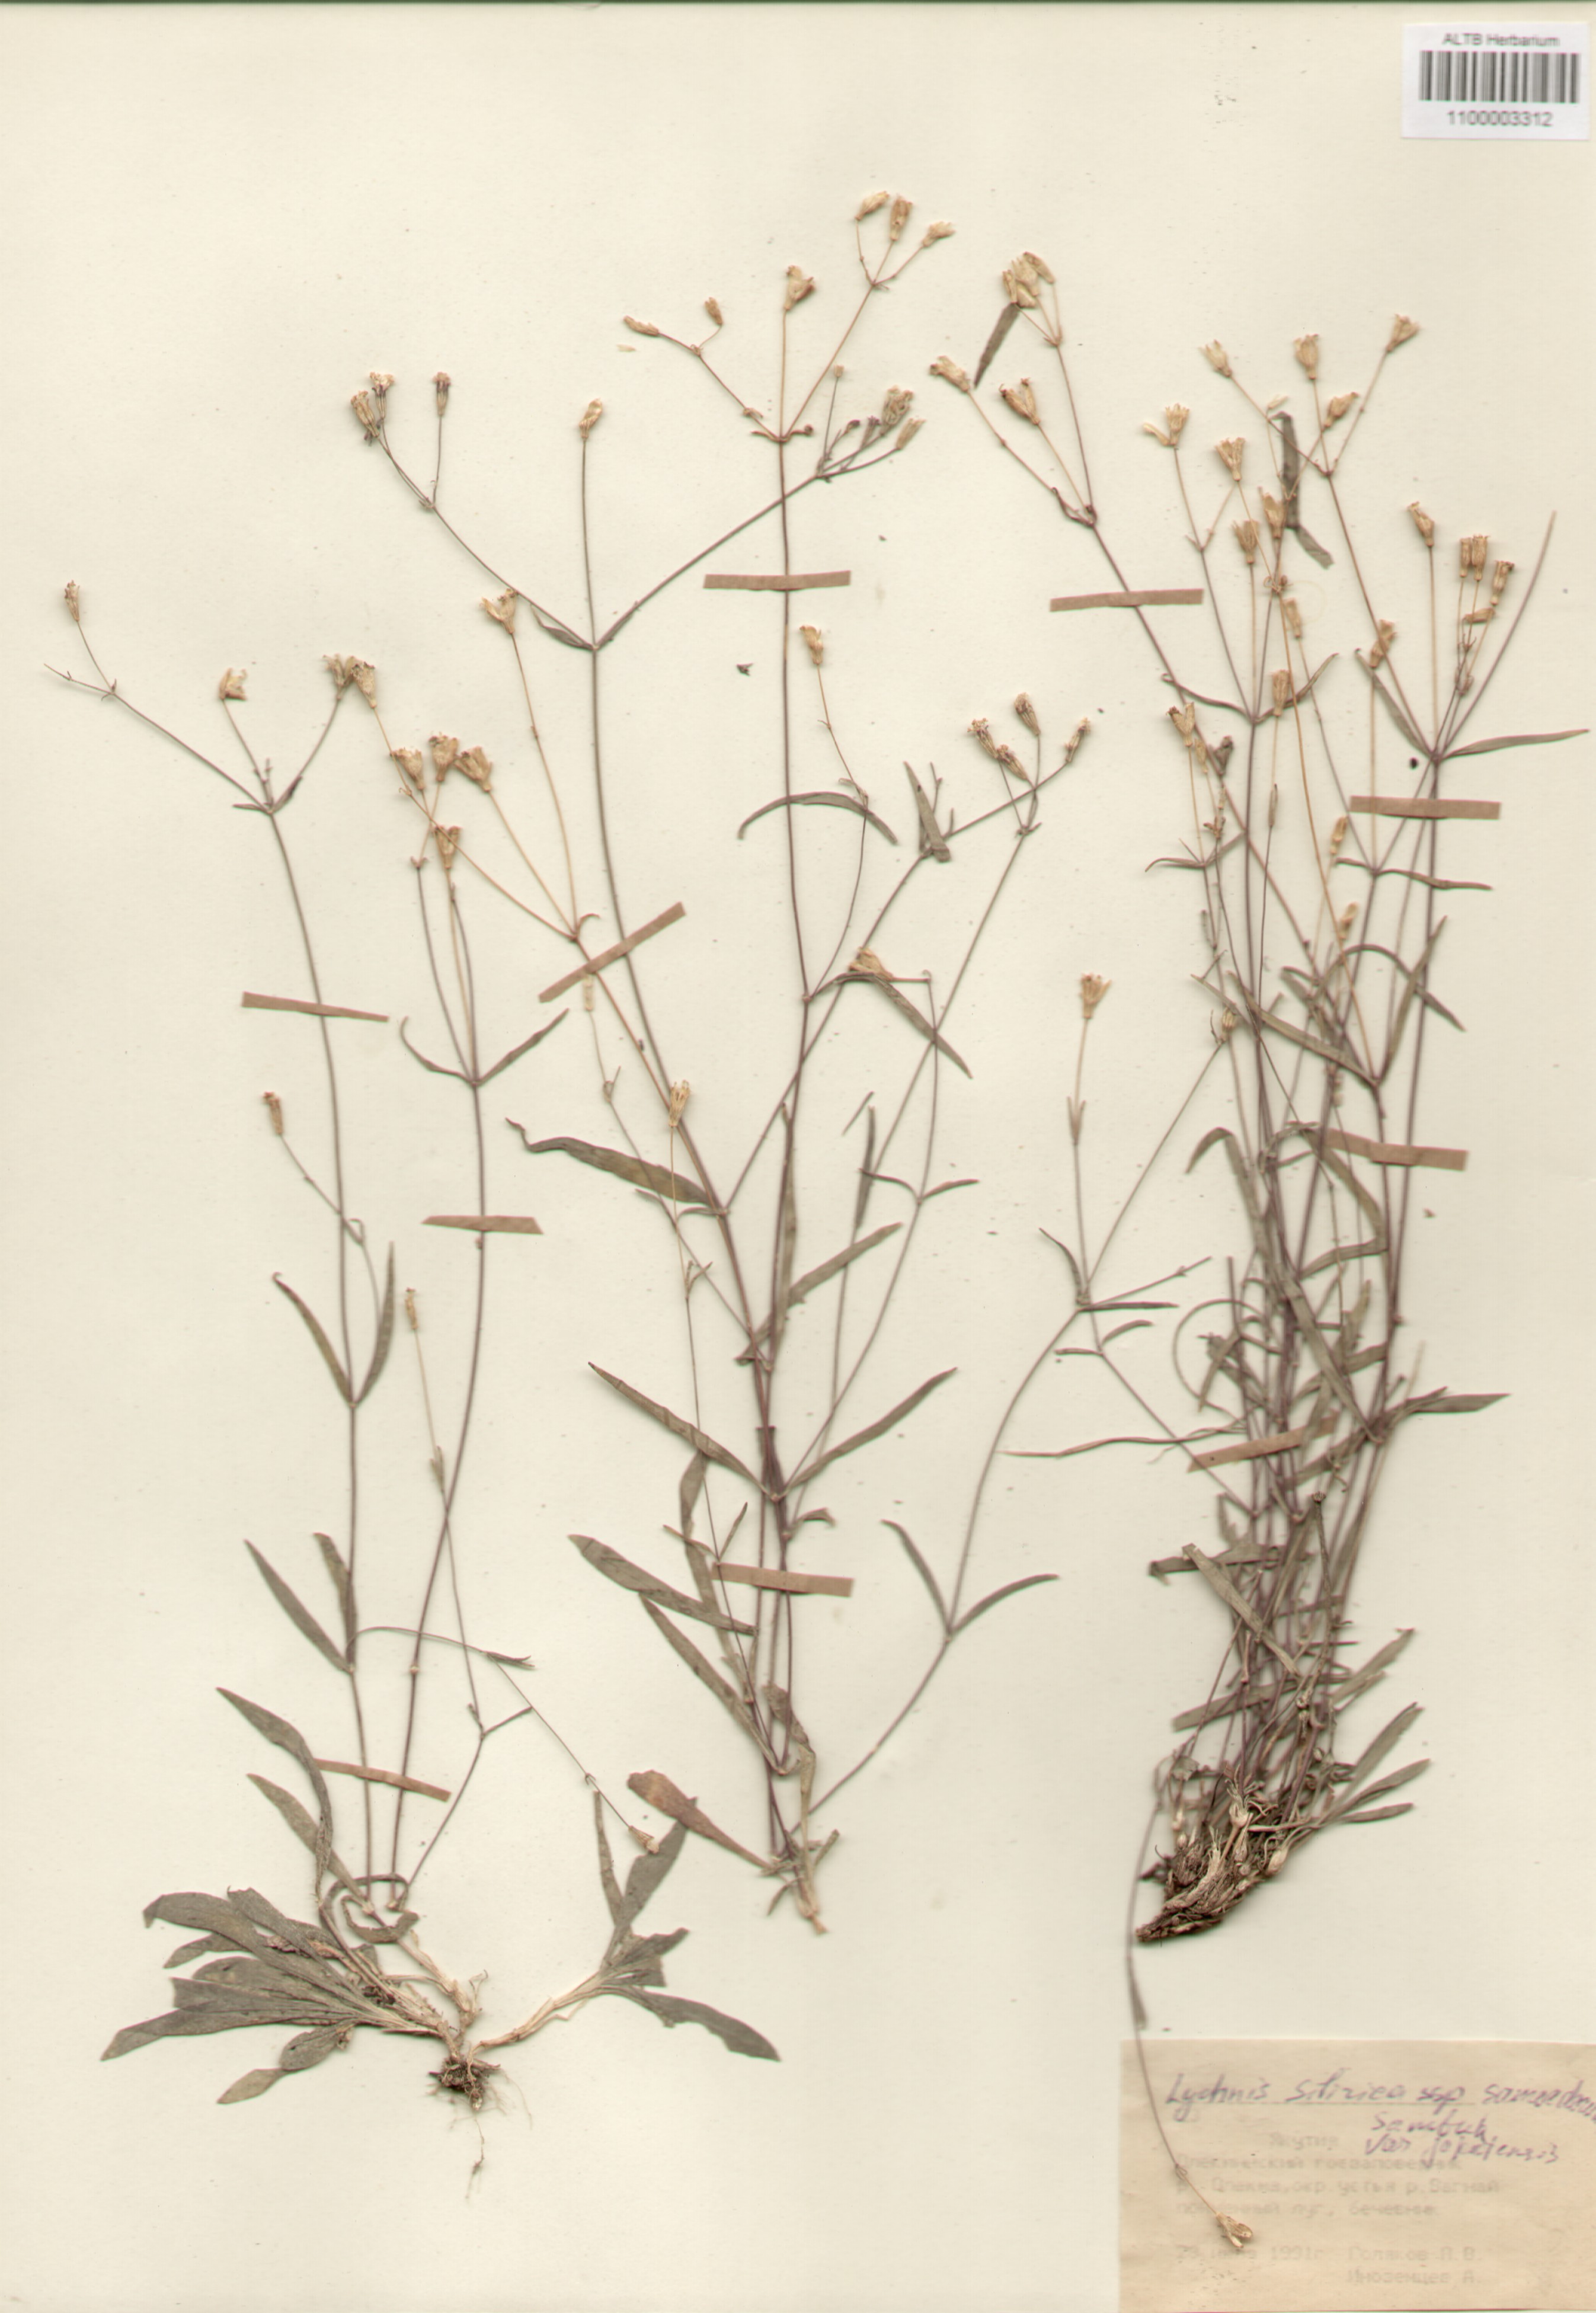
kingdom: Plantae
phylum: Tracheophyta
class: Magnoliopsida
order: Caryophyllales
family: Caryophyllaceae
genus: Silene
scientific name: Silene orientalimongolica
